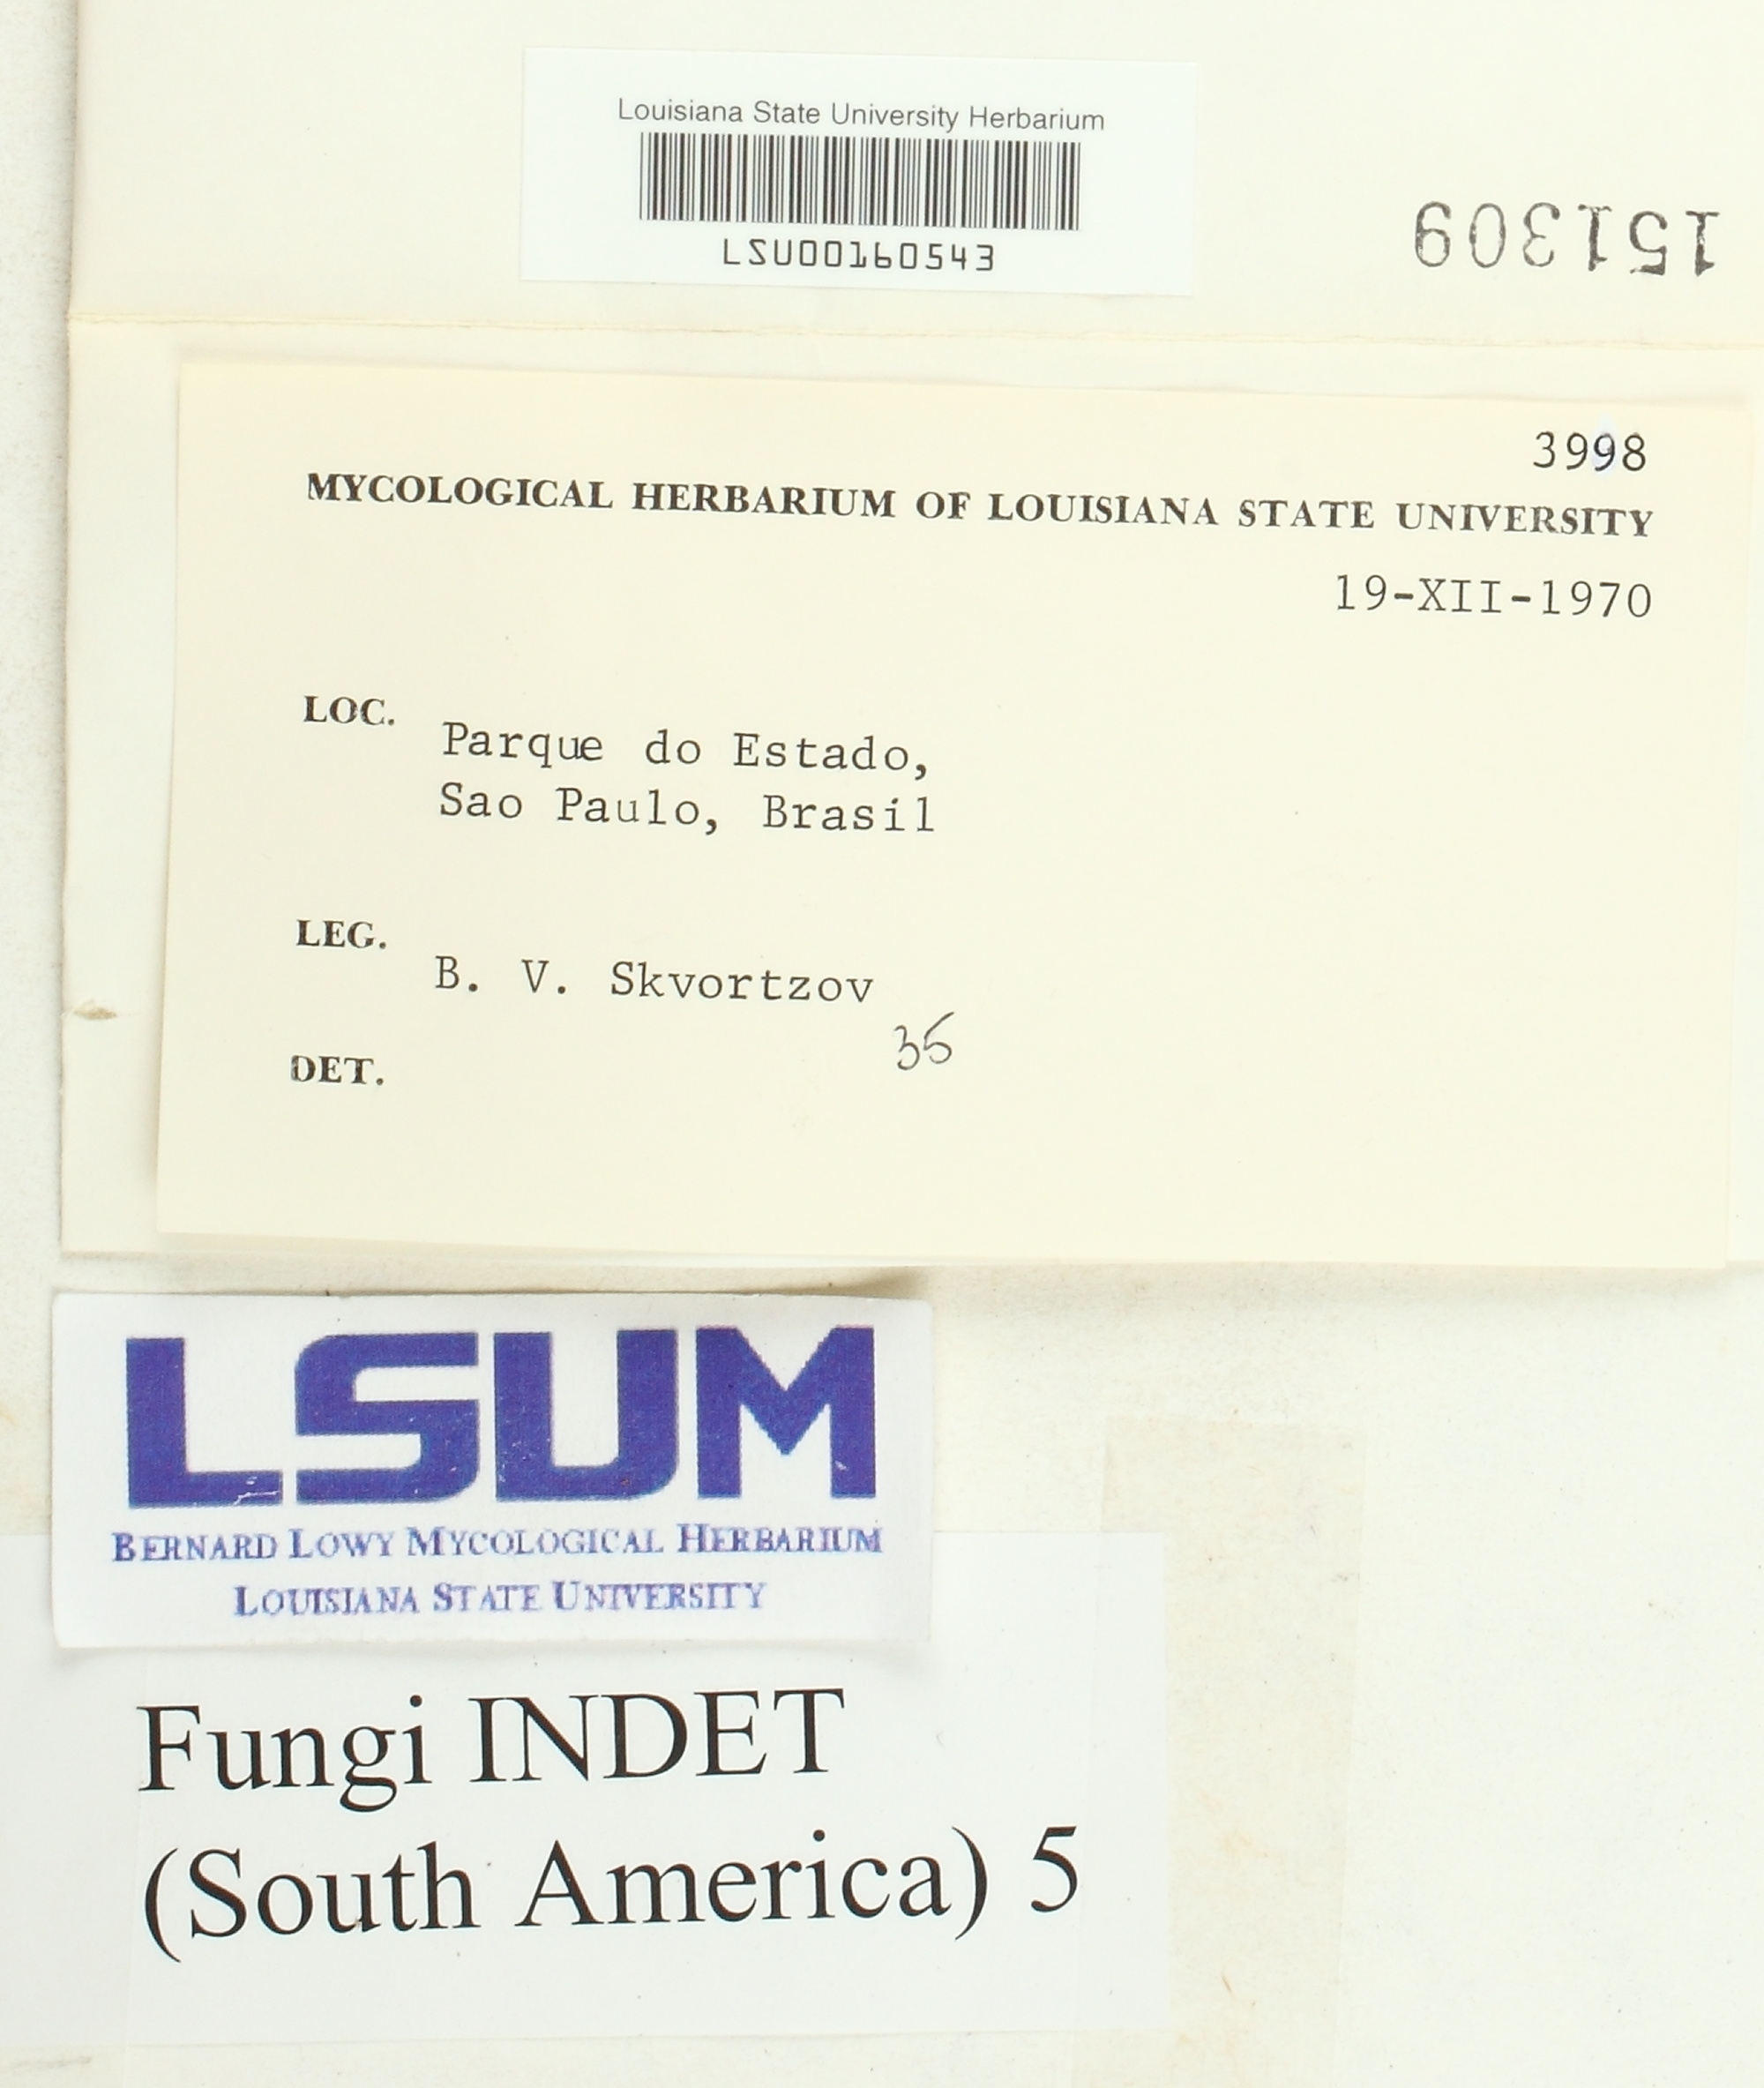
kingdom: Fungi
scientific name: Fungi
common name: Fungi
